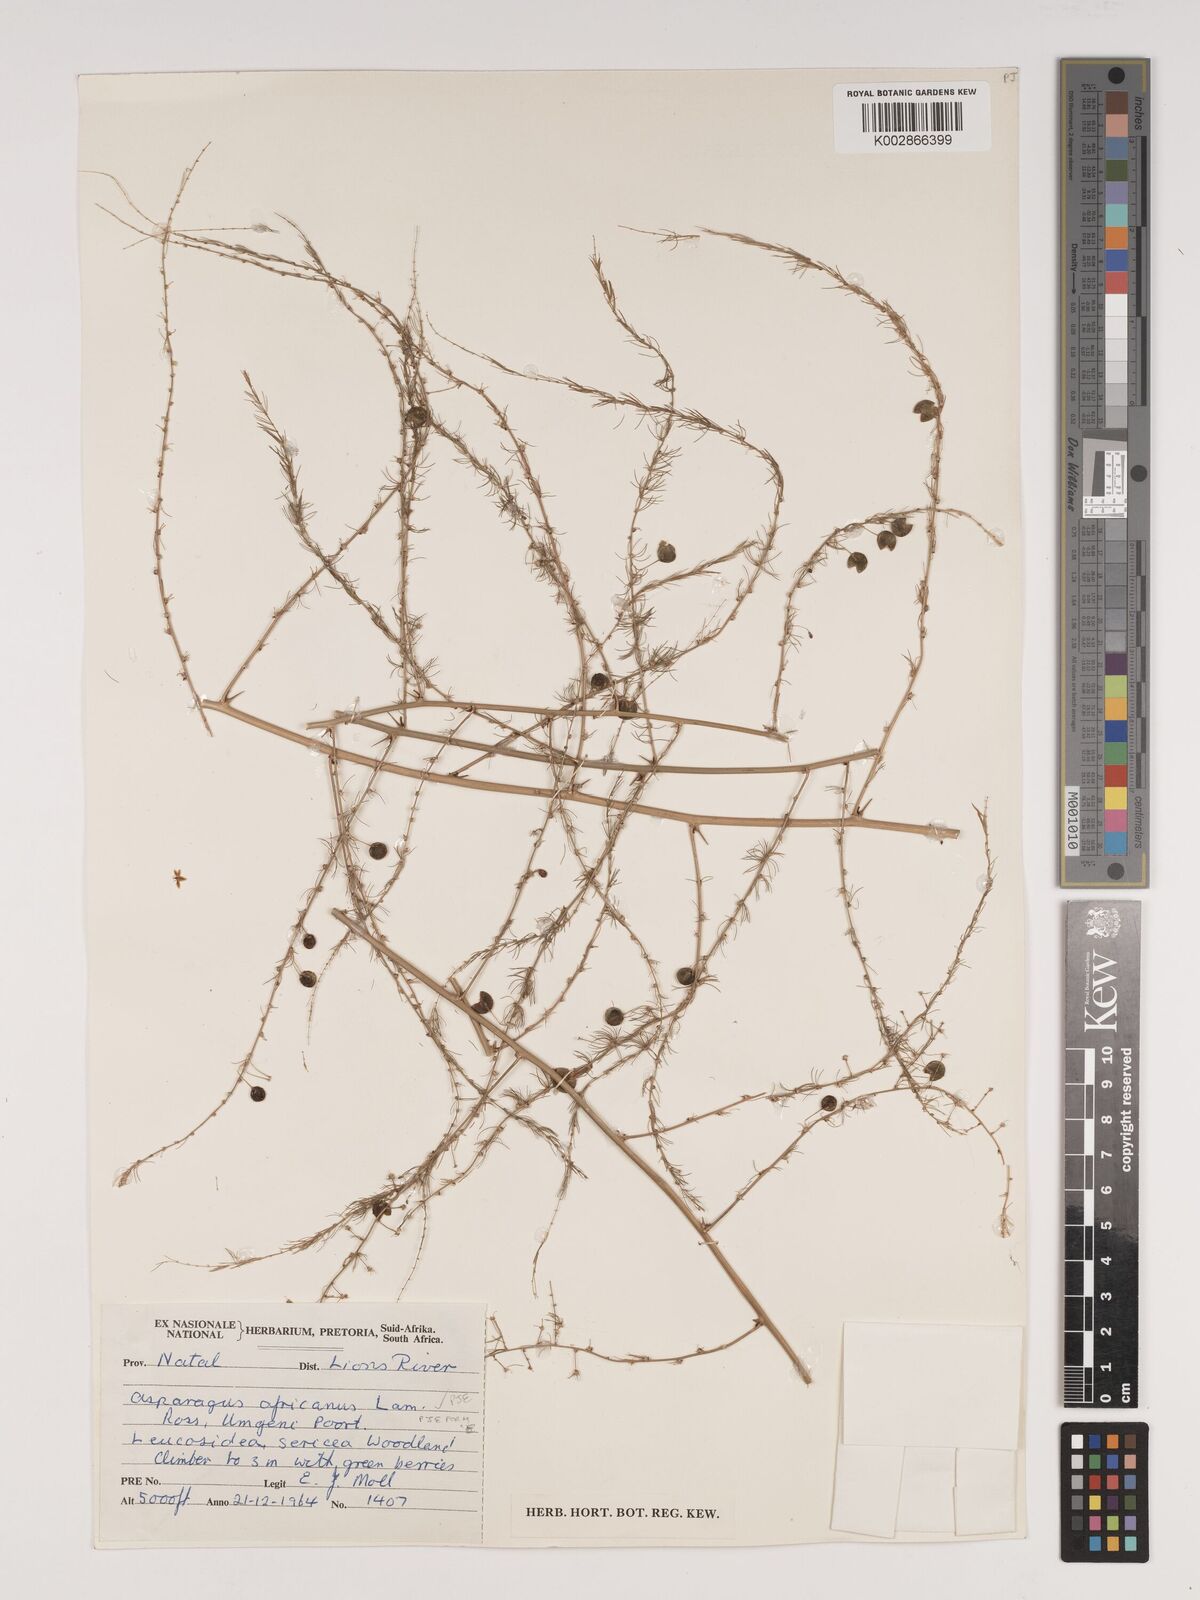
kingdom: Plantae
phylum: Tracheophyta
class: Liliopsida
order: Asparagales
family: Asparagaceae
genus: Asparagus
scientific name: Asparagus africanus
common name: Asparagus-fern
